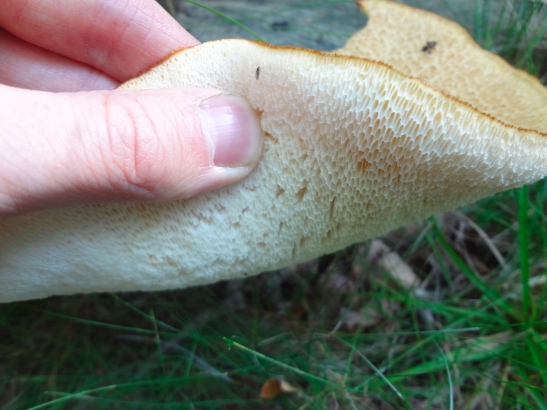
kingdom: Fungi
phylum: Basidiomycota
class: Agaricomycetes
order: Polyporales
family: Polyporaceae
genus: Polyporus
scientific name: Polyporus tuberaster
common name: knoldet stilkporesvamp
